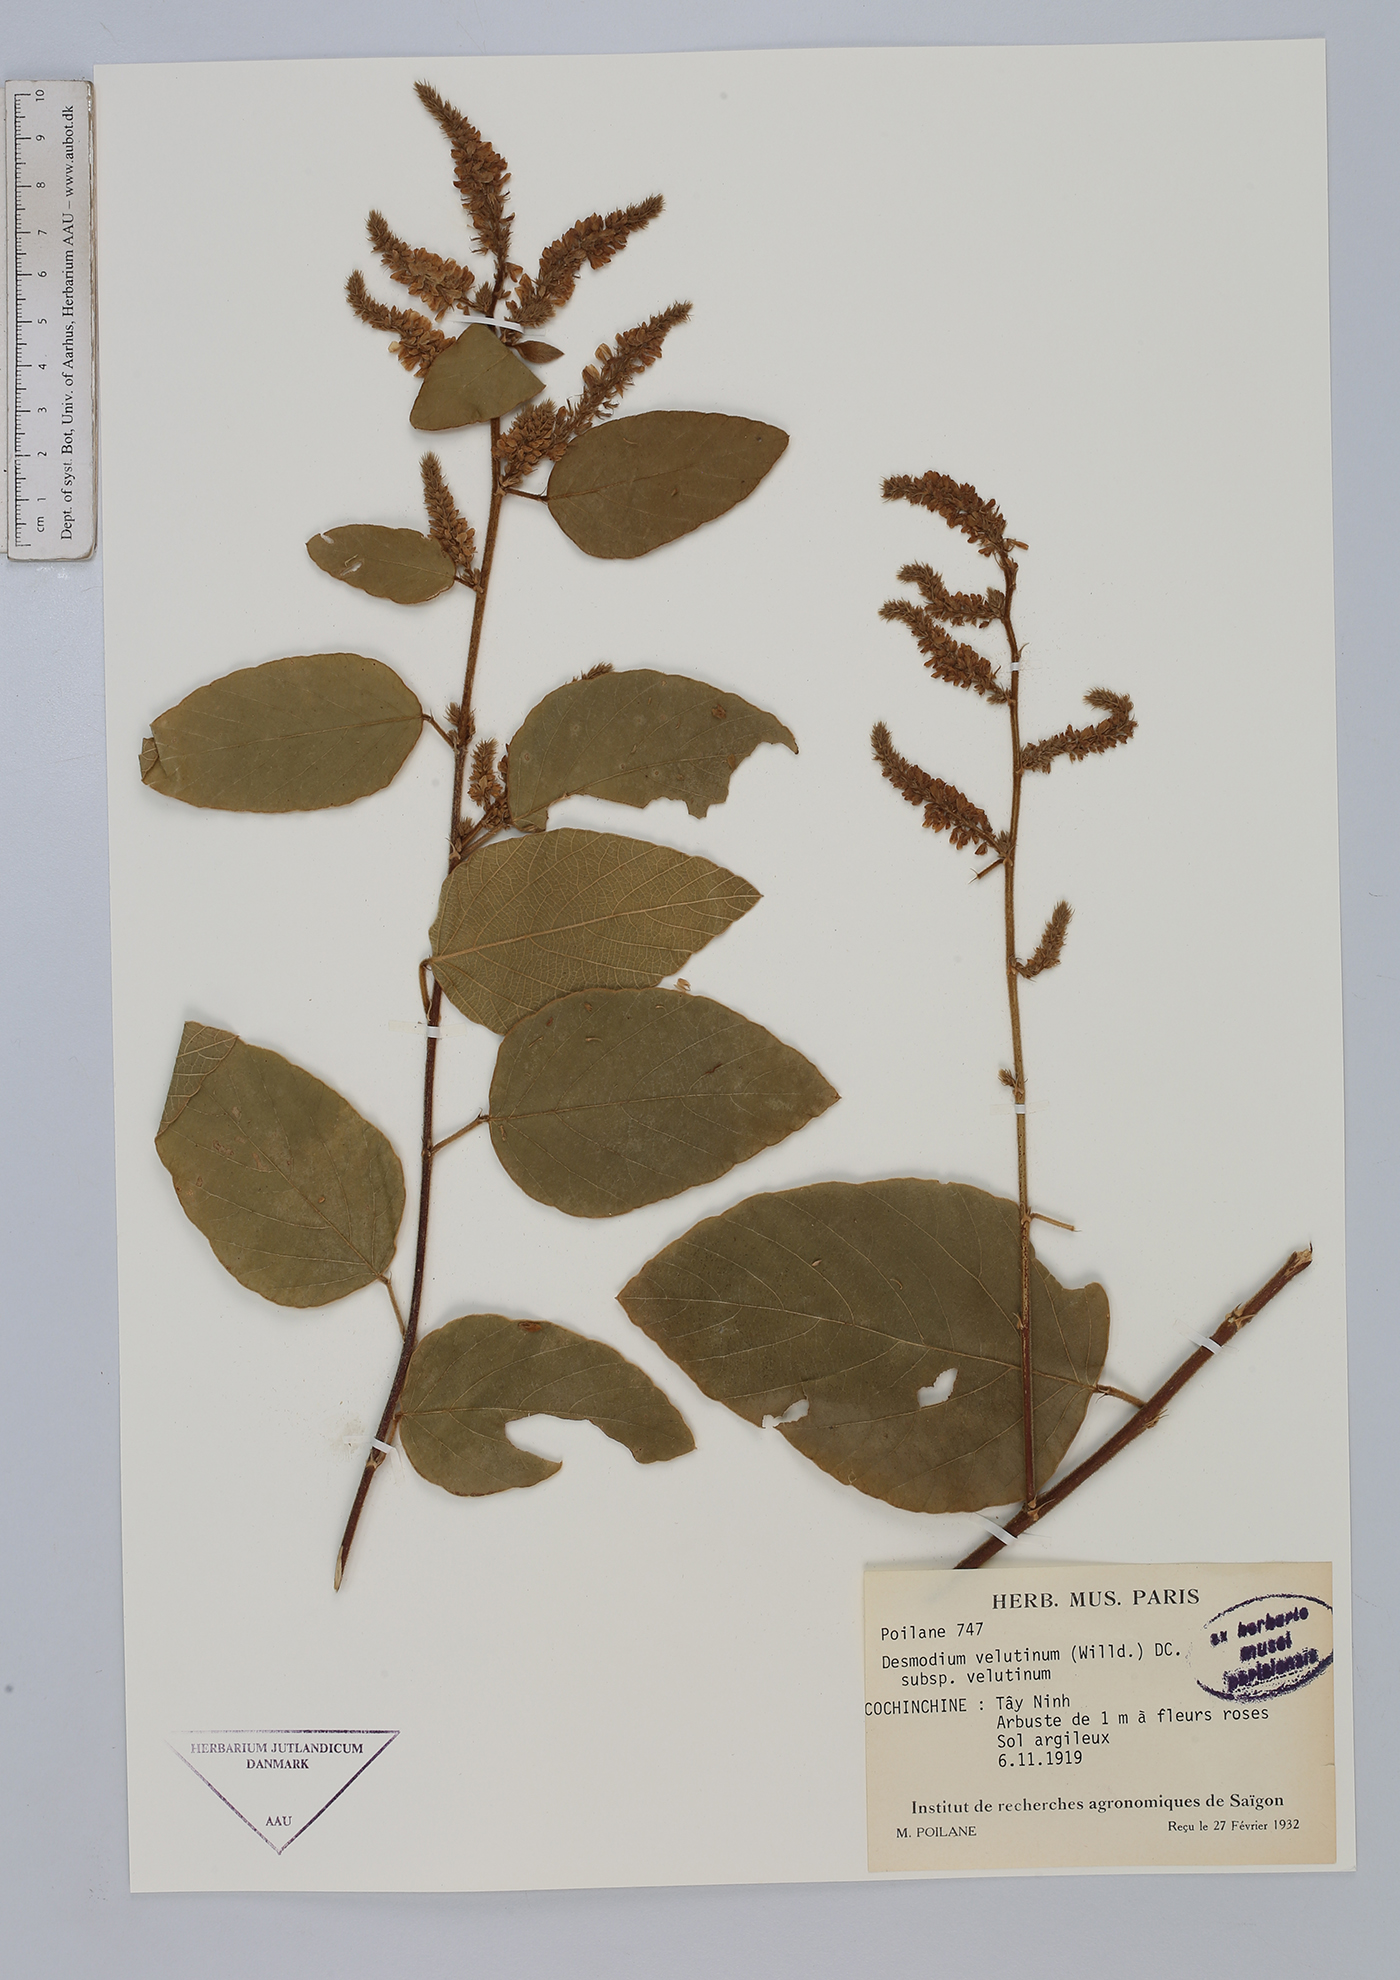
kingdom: Plantae
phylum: Tracheophyta
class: Magnoliopsida
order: Fabales
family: Fabaceae
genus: Polhillides
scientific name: Polhillides velutina
